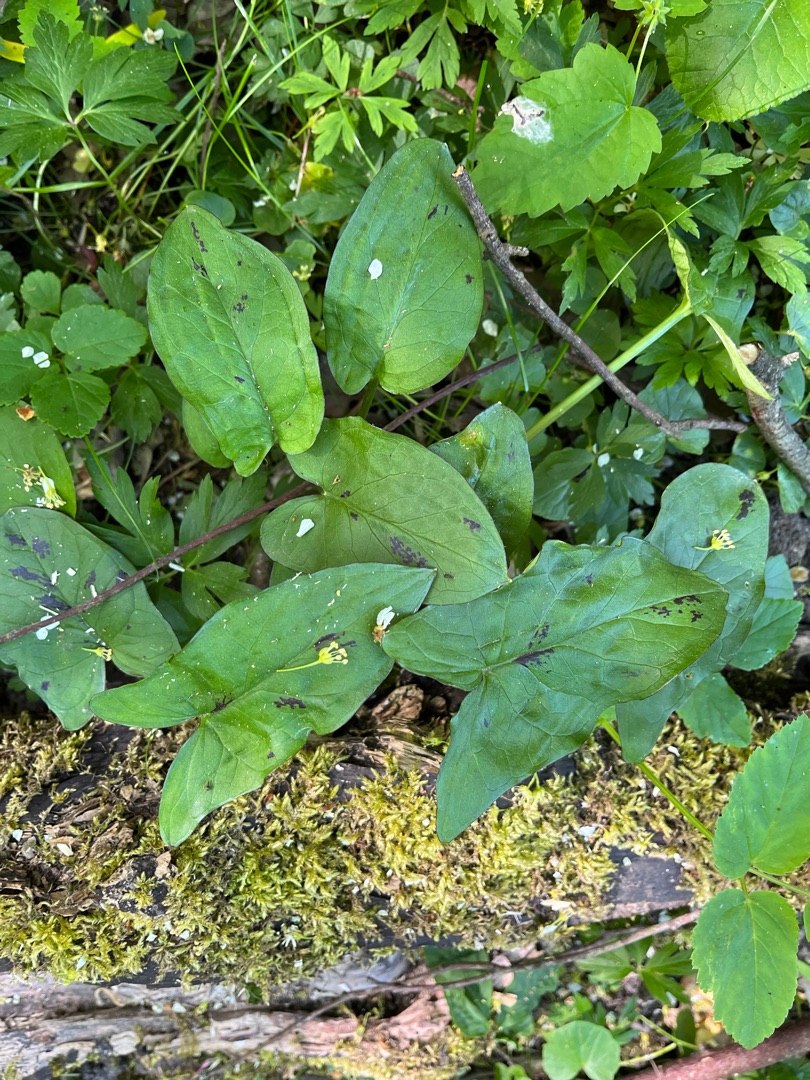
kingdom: Plantae
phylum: Tracheophyta
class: Liliopsida
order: Alismatales
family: Araceae
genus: Arum
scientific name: Arum maculatum
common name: Plettet arum
